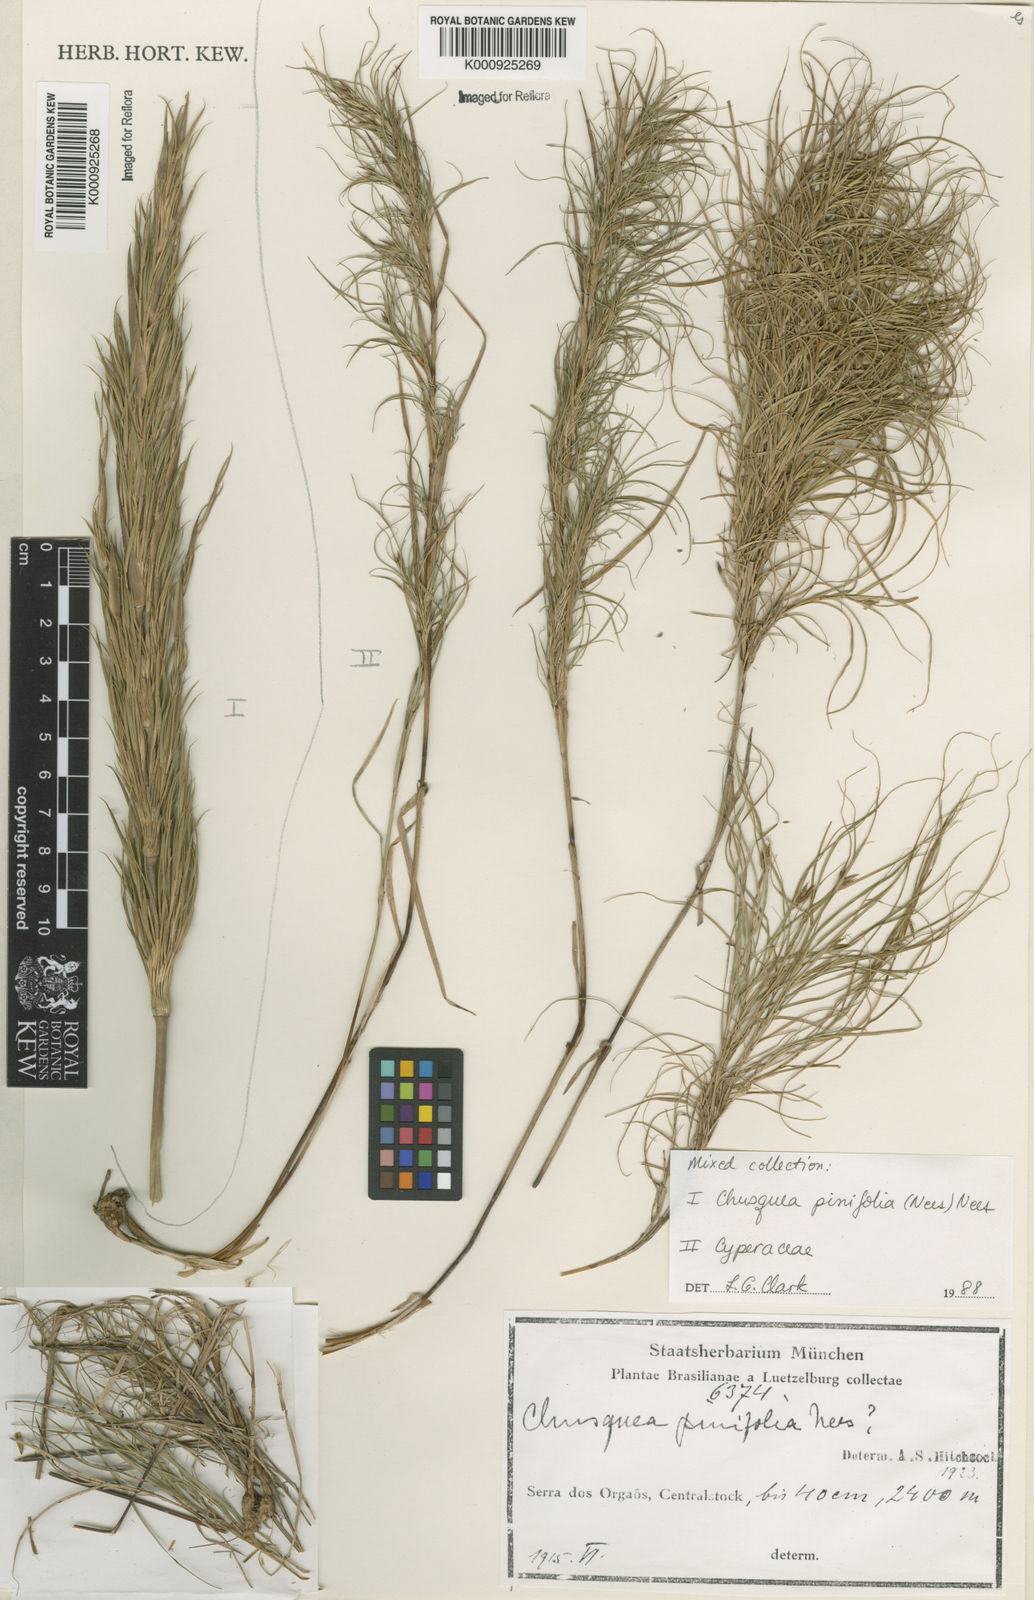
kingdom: Plantae
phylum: Tracheophyta
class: Liliopsida
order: Poales
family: Poaceae
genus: Chusquea
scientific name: Chusquea pinifolia
